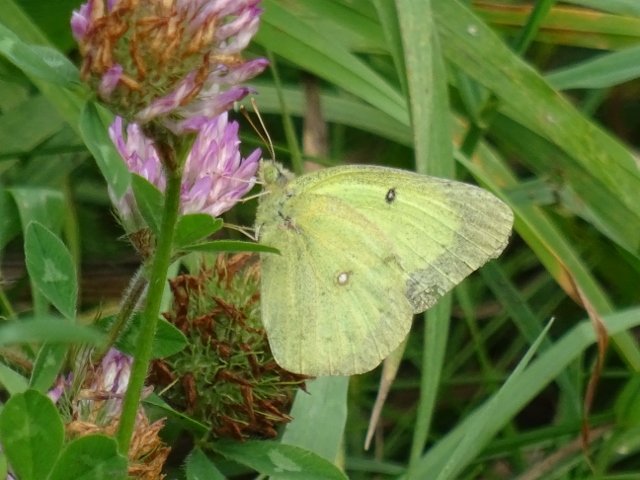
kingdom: Animalia
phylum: Arthropoda
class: Insecta
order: Lepidoptera
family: Pieridae
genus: Colias
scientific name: Colias philodice
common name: Clouded Sulphur
